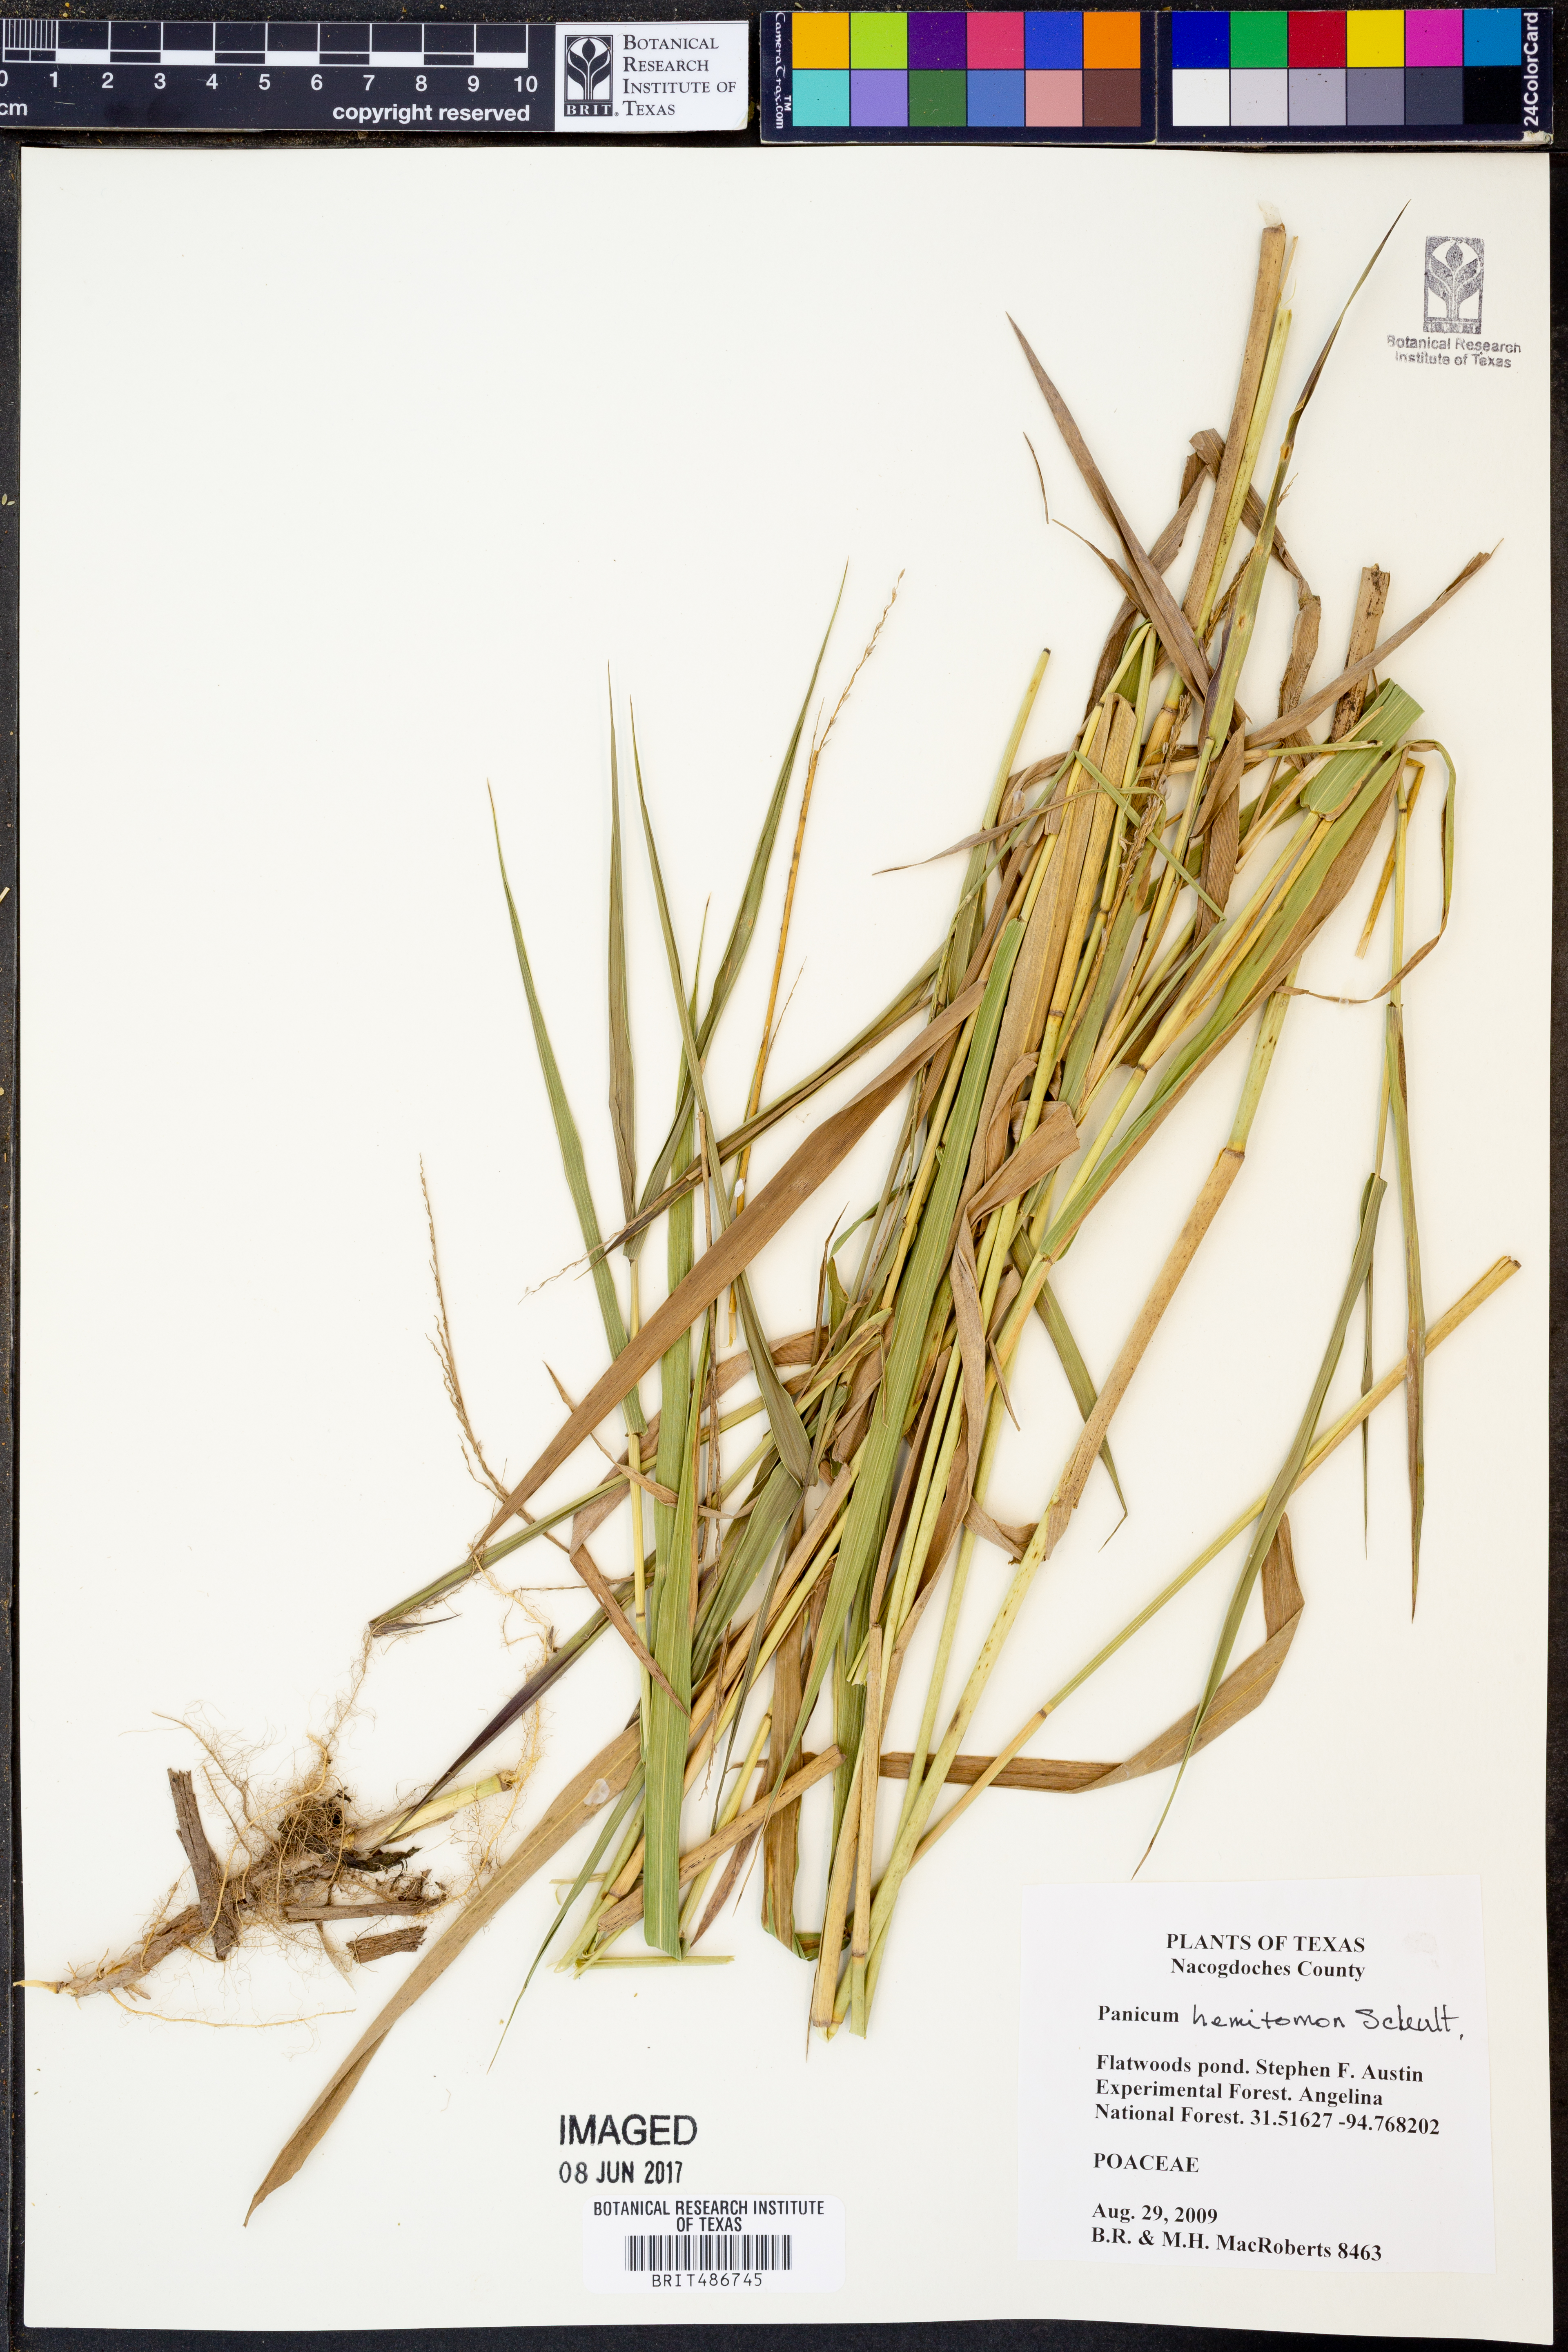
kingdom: Plantae
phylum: Tracheophyta
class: Liliopsida
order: Poales
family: Poaceae
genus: Panicum
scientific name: Panicum hemitomon
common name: Maidencane
